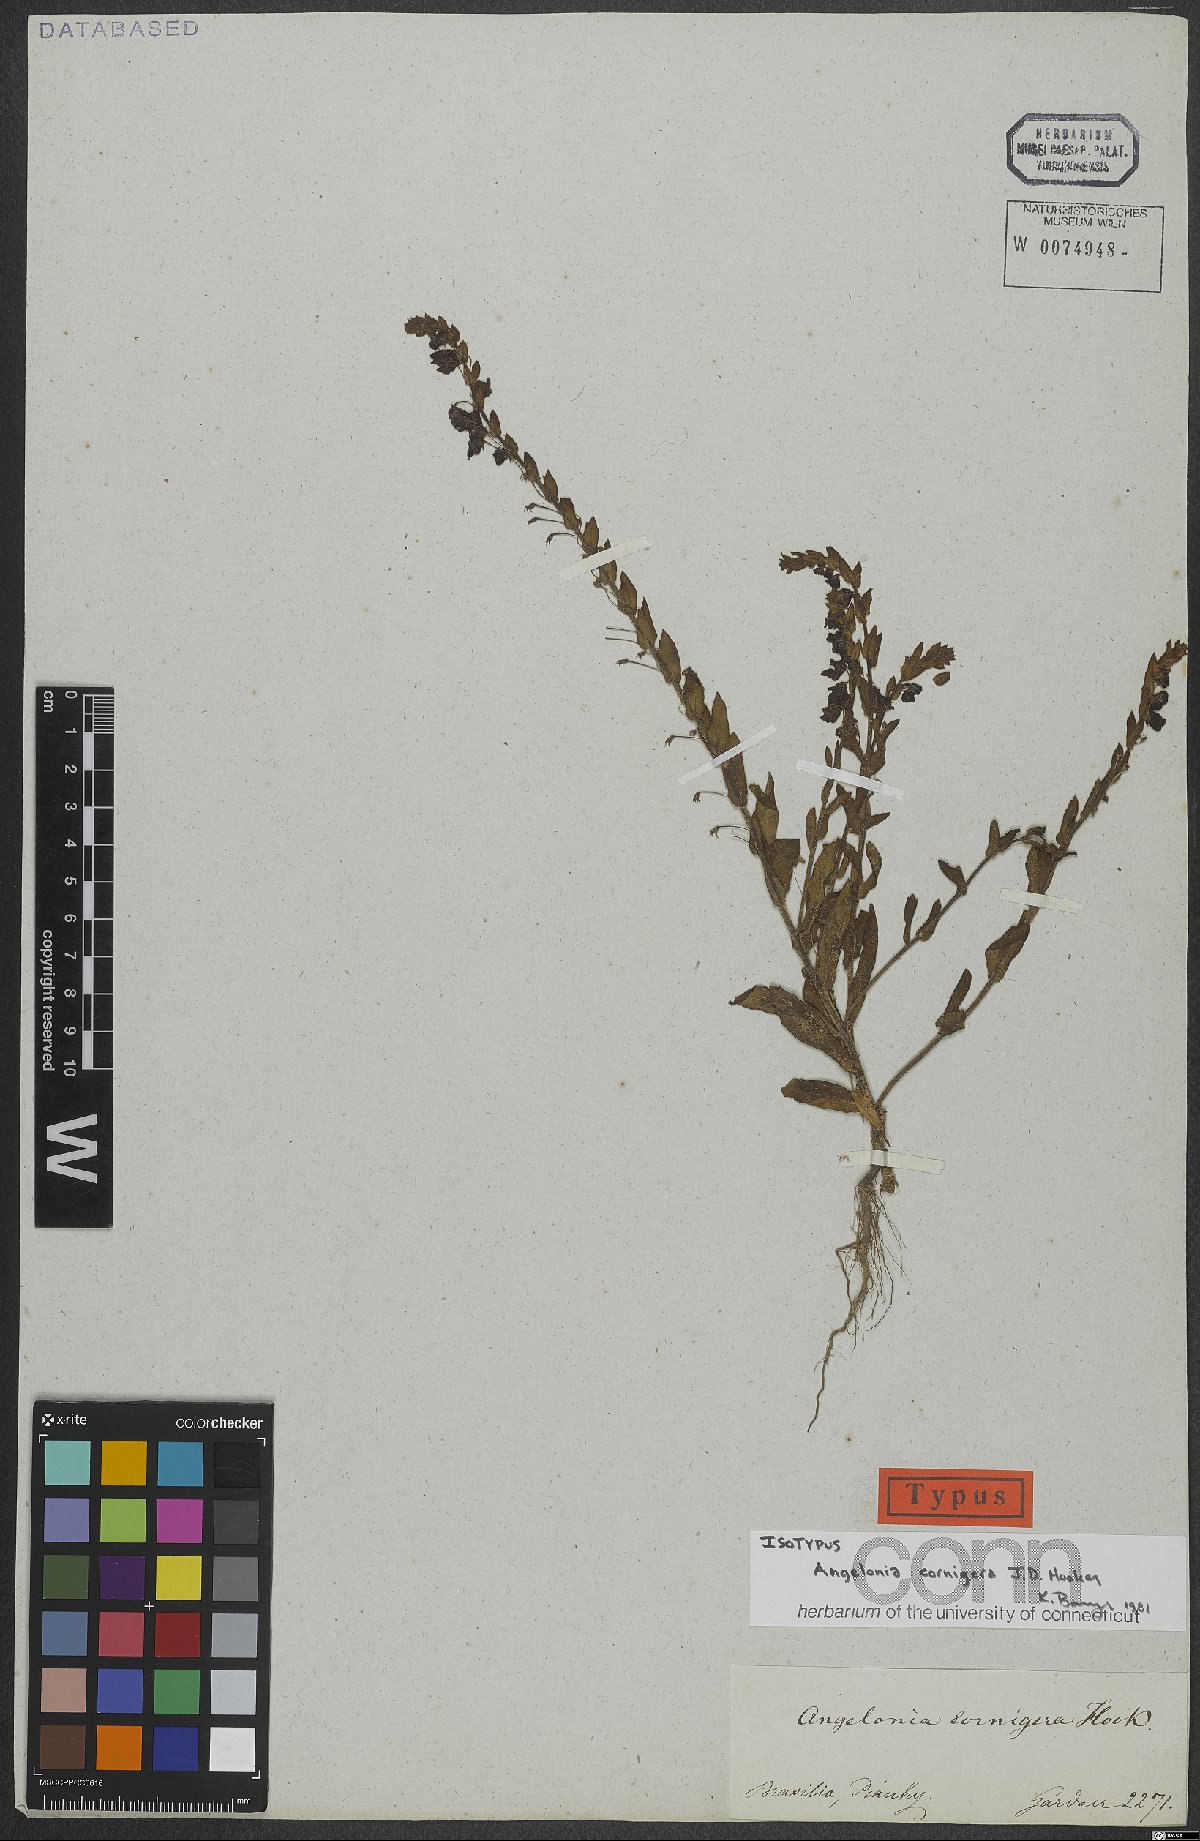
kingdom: Plantae
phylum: Tracheophyta
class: Magnoliopsida
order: Lamiales
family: Plantaginaceae
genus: Angelonia
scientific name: Angelonia cornigera
